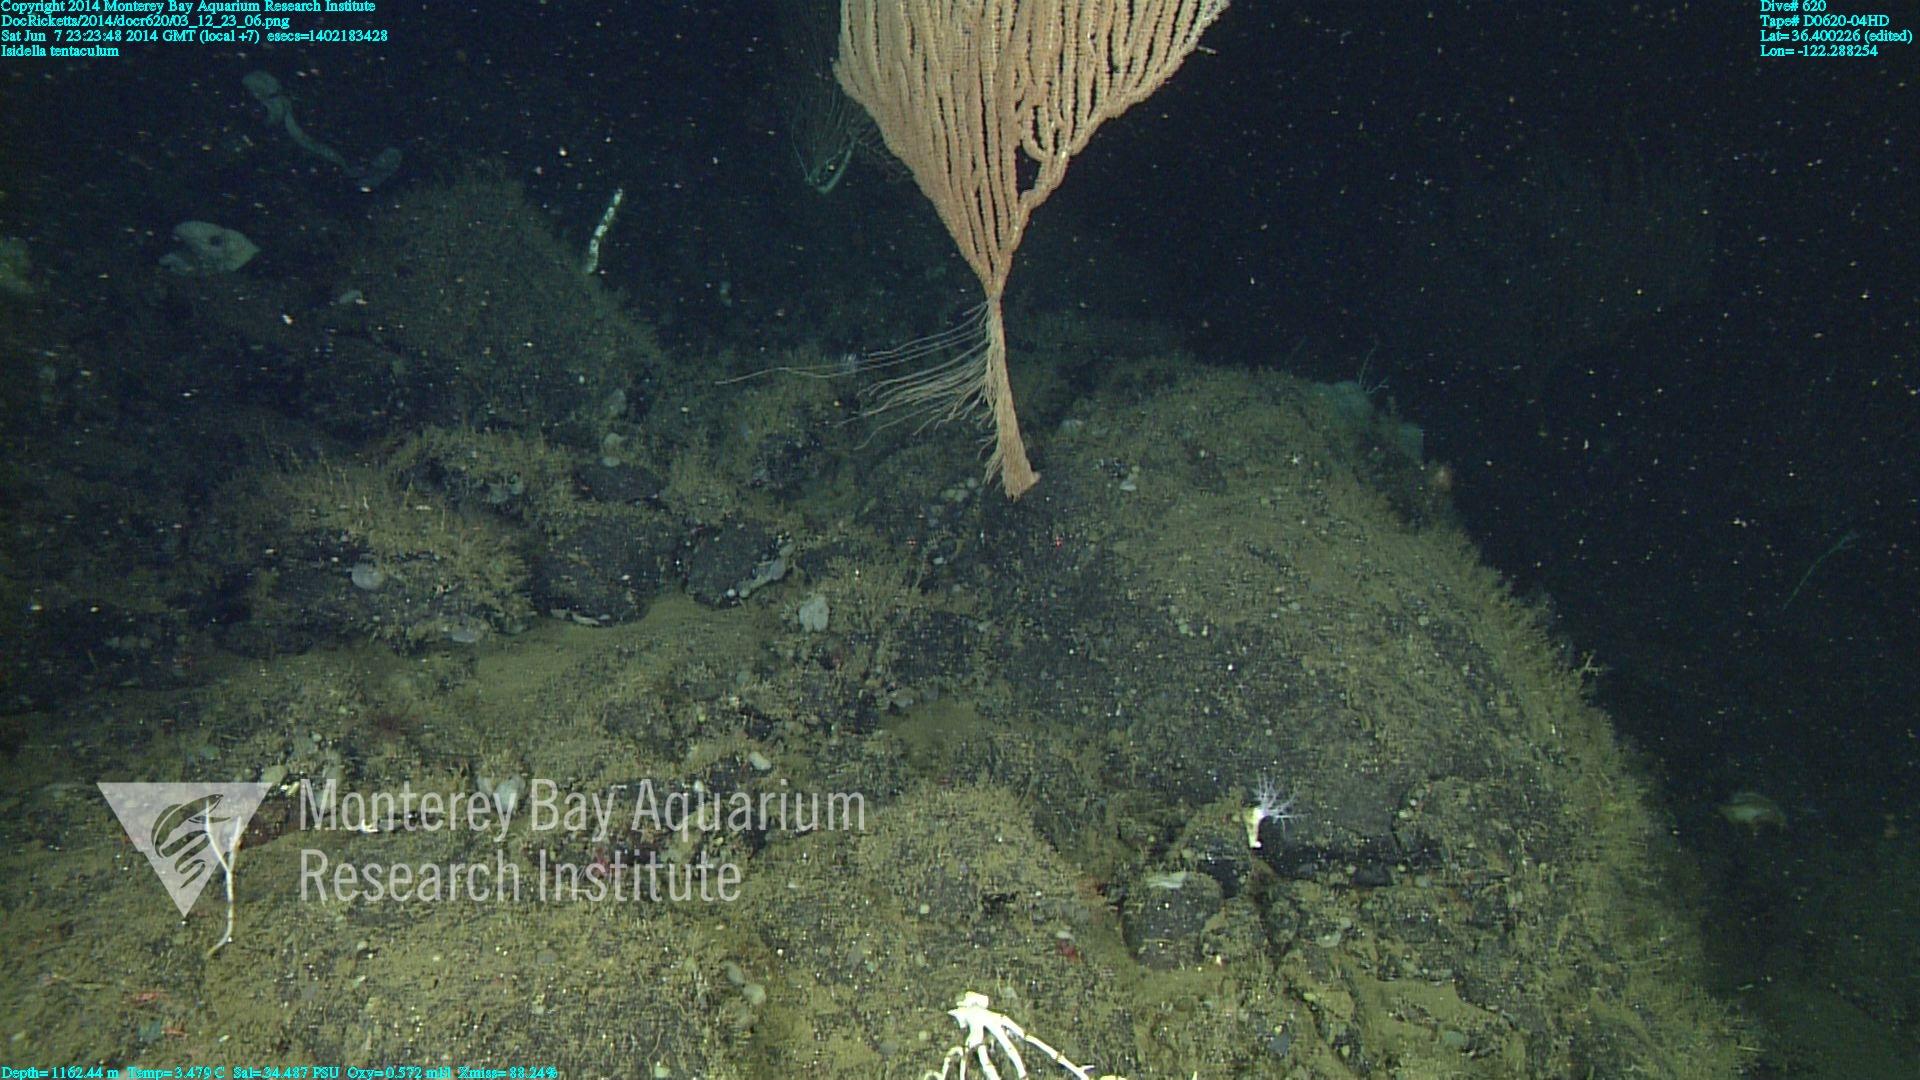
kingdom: Animalia
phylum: Cnidaria
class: Anthozoa
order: Scleralcyonacea
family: Keratoisididae
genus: Isidella
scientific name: Isidella tentaculum
